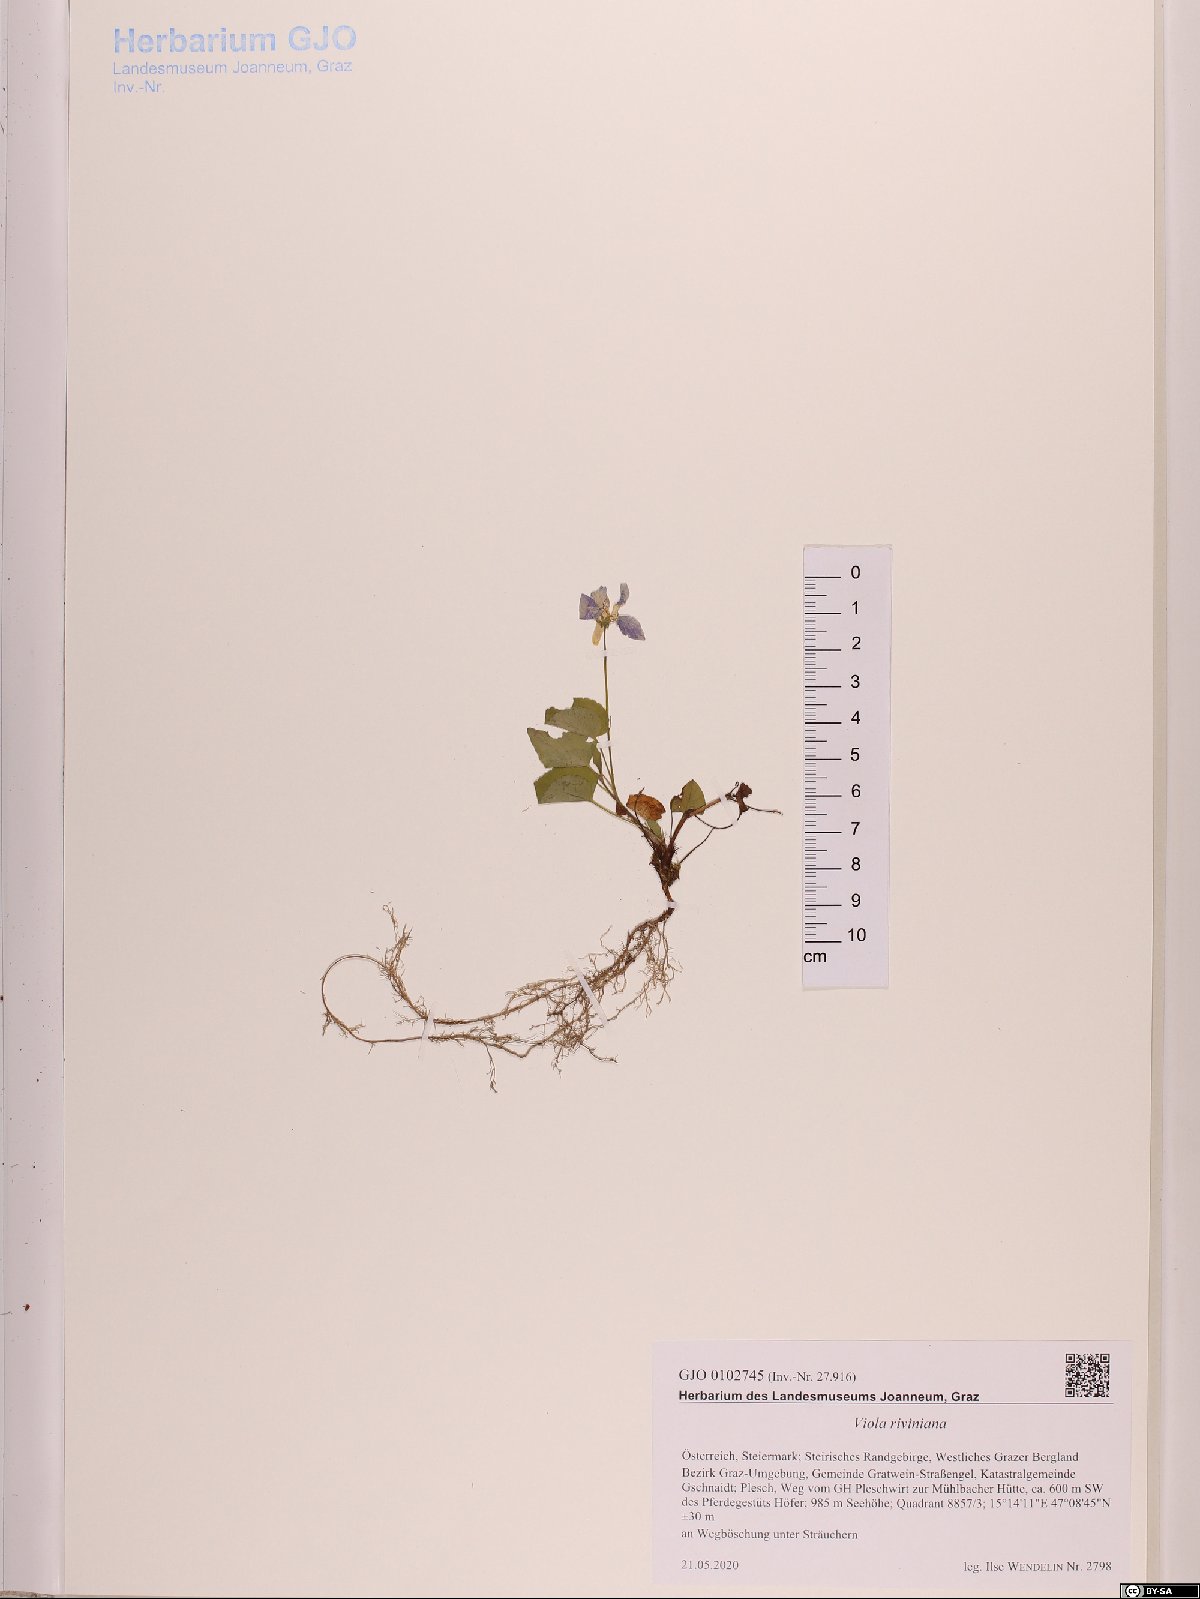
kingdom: Plantae
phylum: Tracheophyta
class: Magnoliopsida
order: Malpighiales
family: Violaceae
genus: Viola
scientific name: Viola riviniana
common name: Common dog-violet
